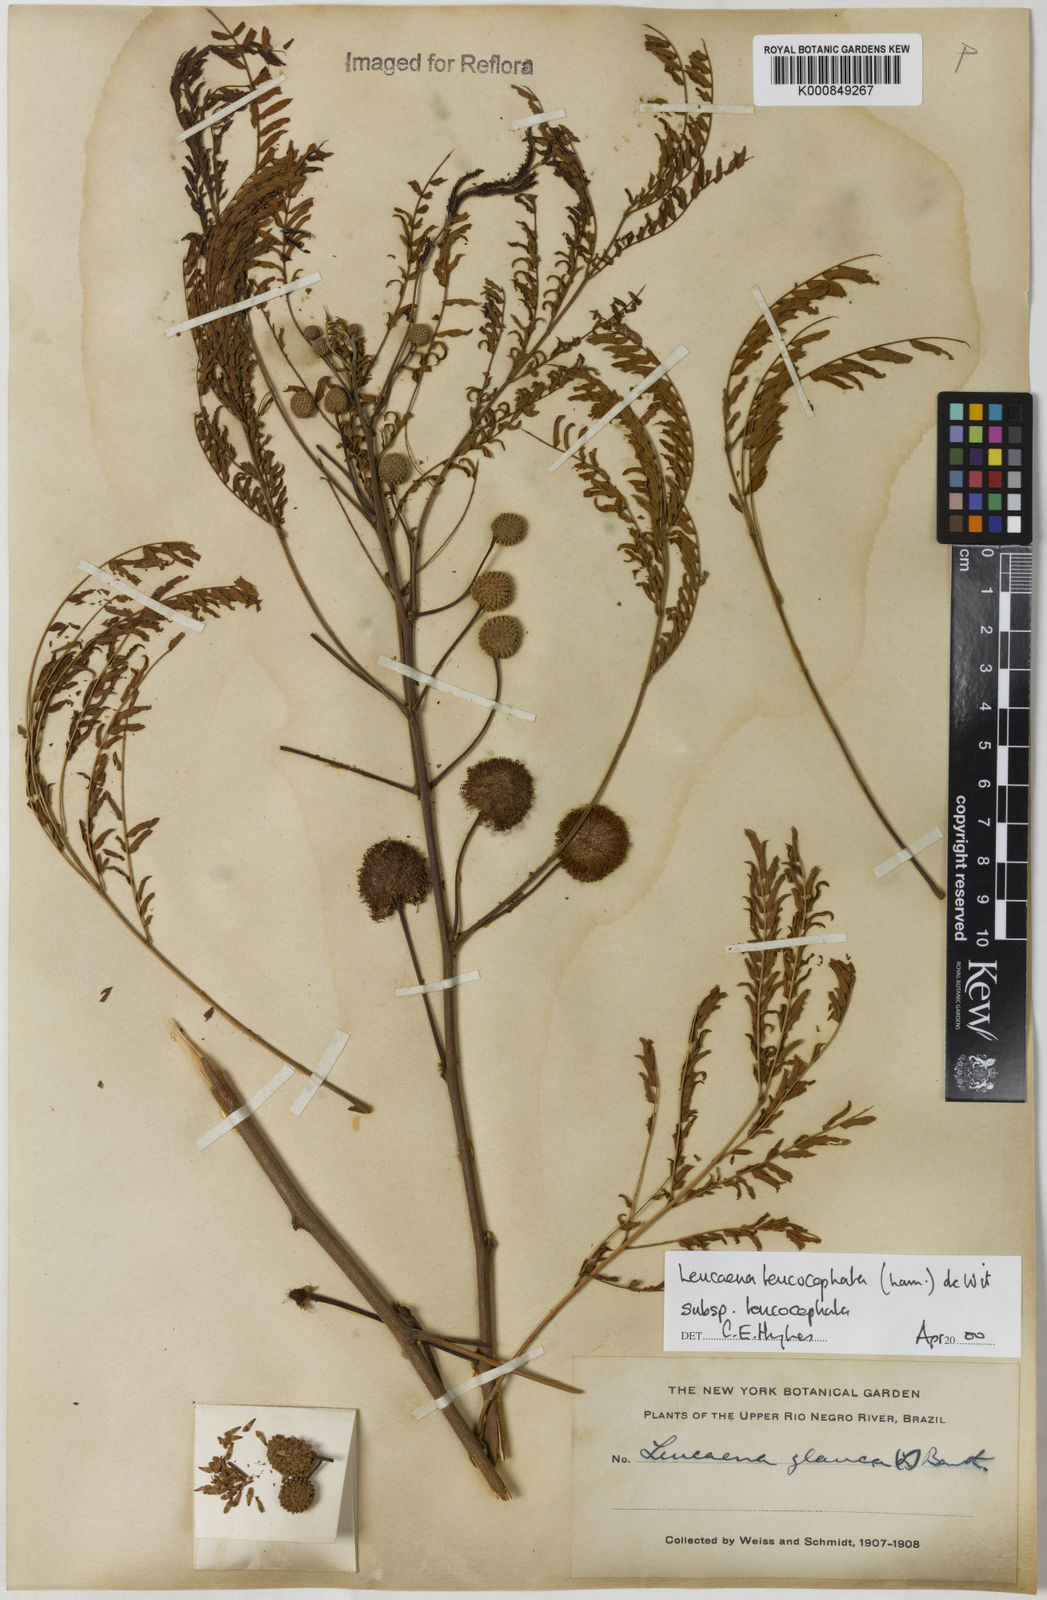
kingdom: Plantae
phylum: Tracheophyta
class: Magnoliopsida
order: Fabales
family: Fabaceae
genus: Leucaena
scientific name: Leucaena leucocephala
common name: White leadtree
